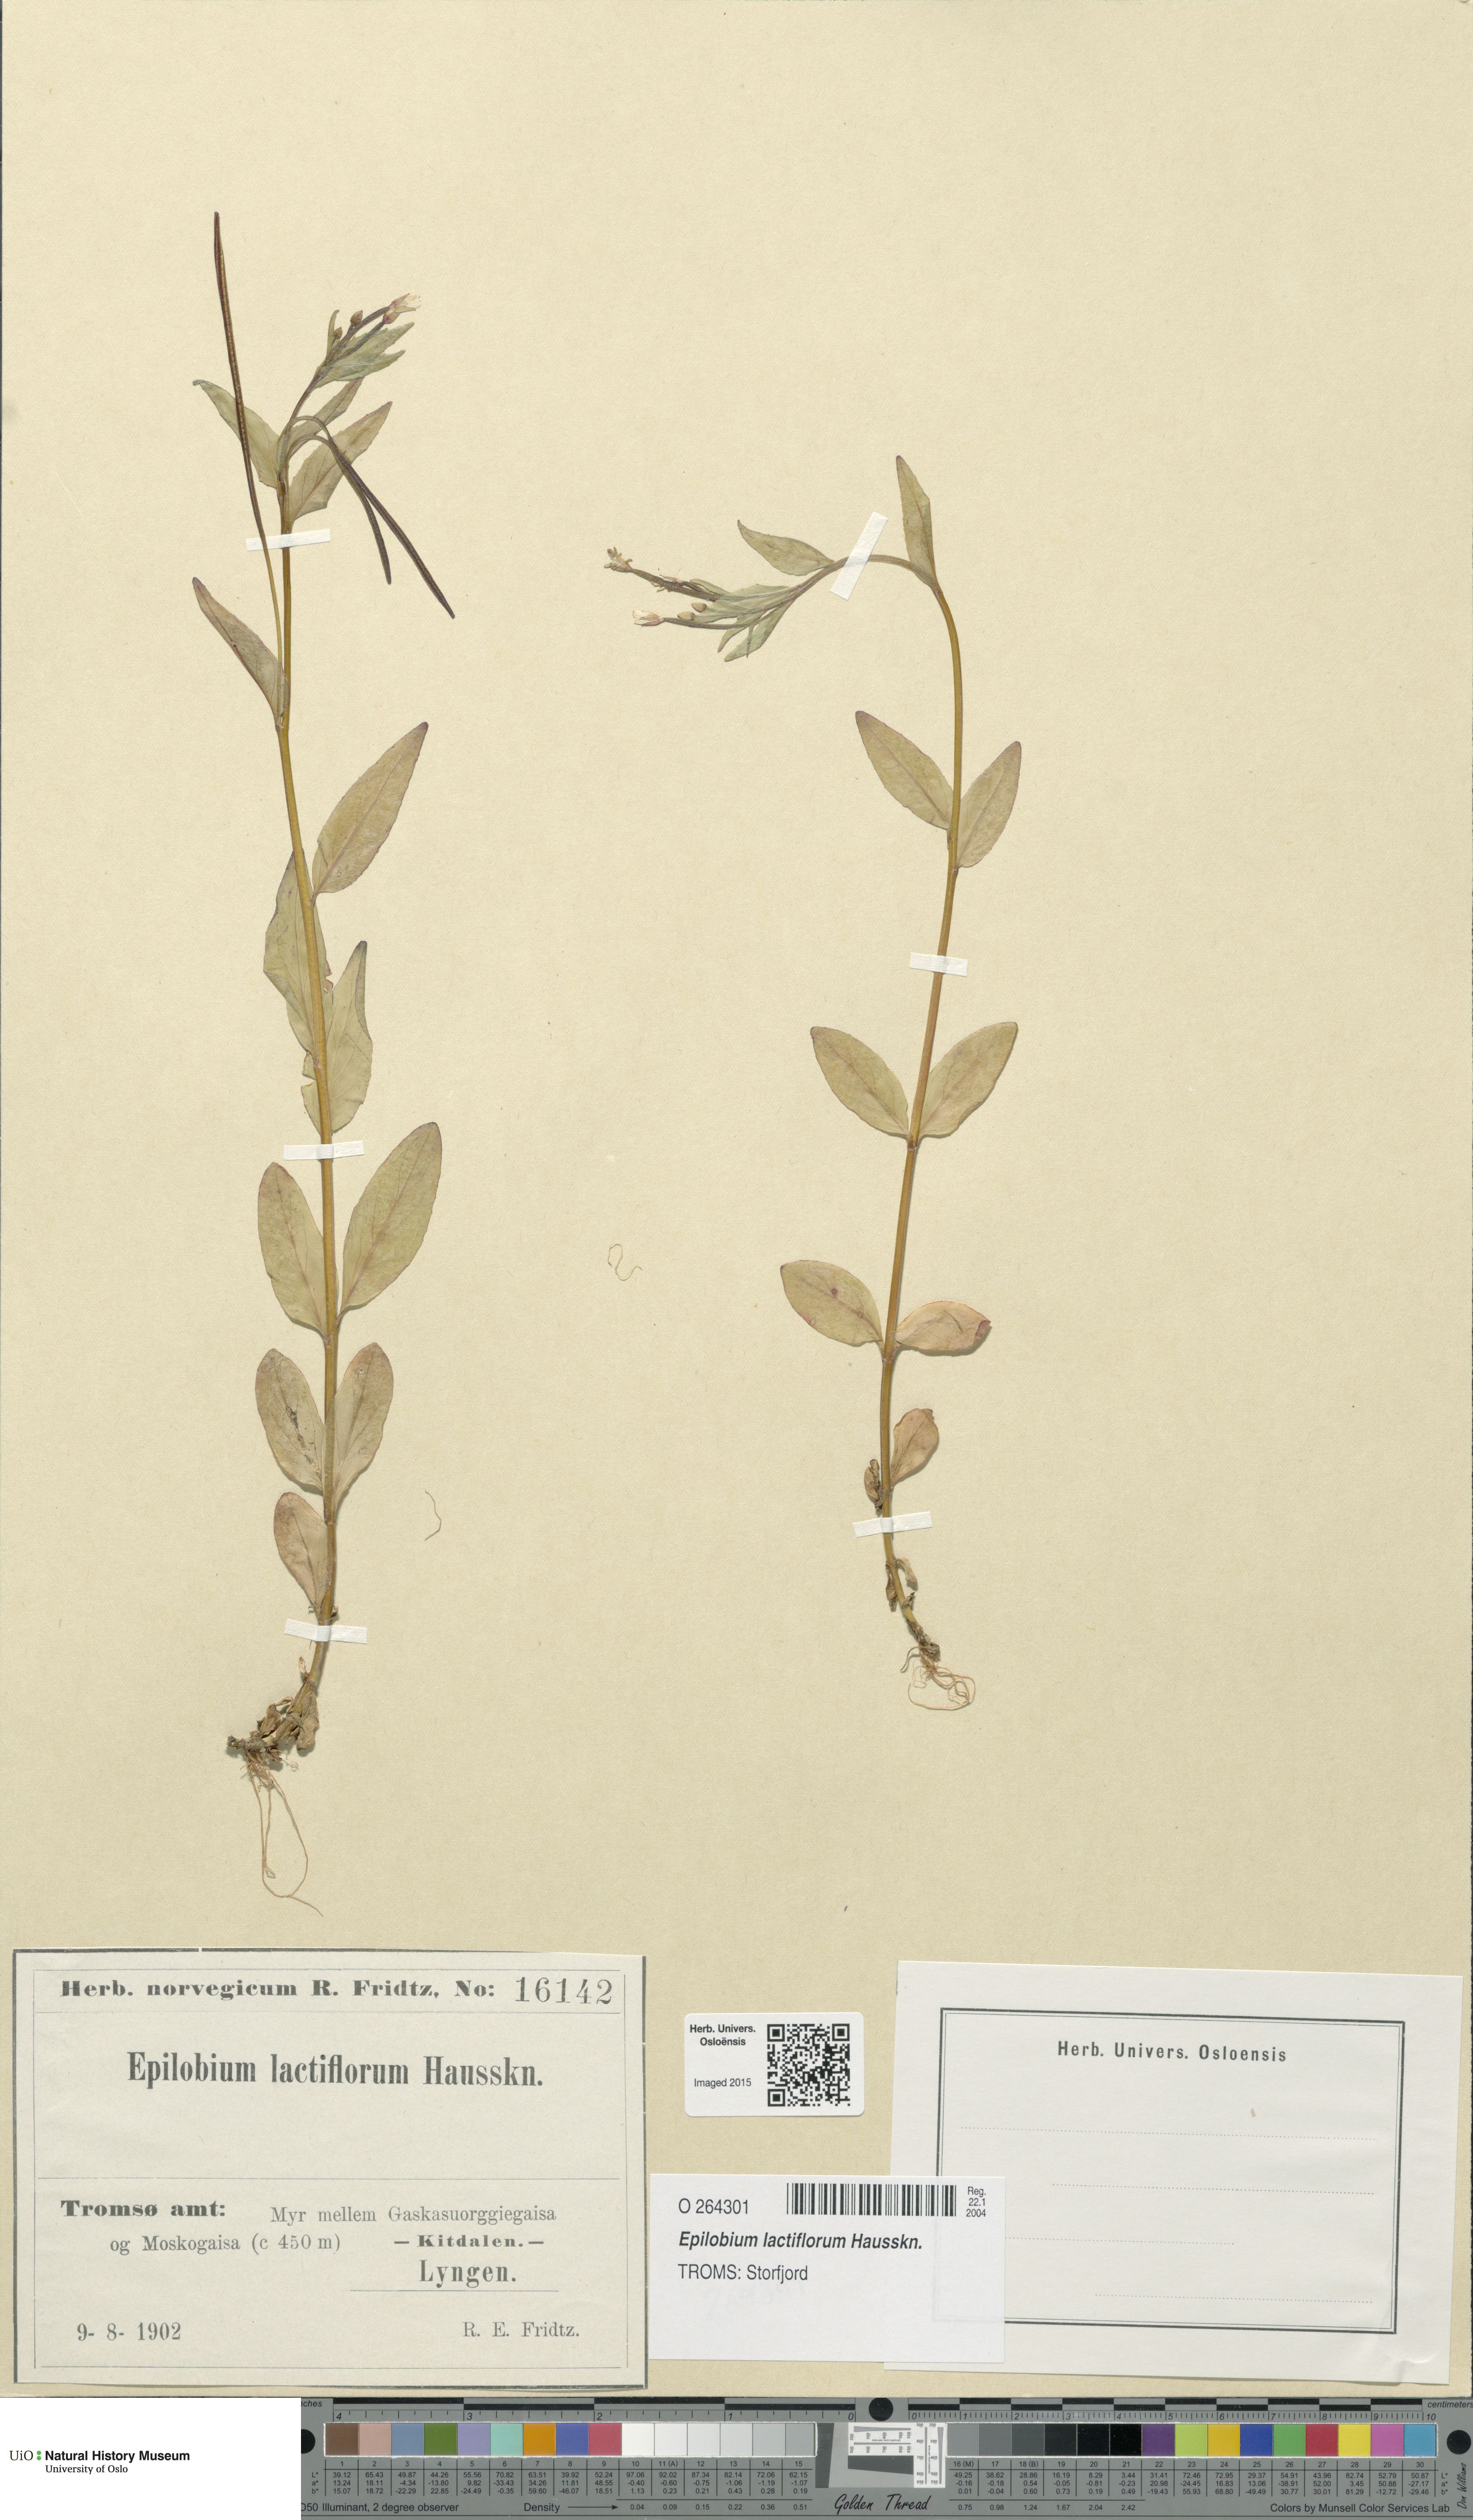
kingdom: Plantae
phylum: Tracheophyta
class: Magnoliopsida
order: Myrtales
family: Onagraceae
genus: Epilobium
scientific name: Epilobium lactiflorum
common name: Milkflower willowherb
